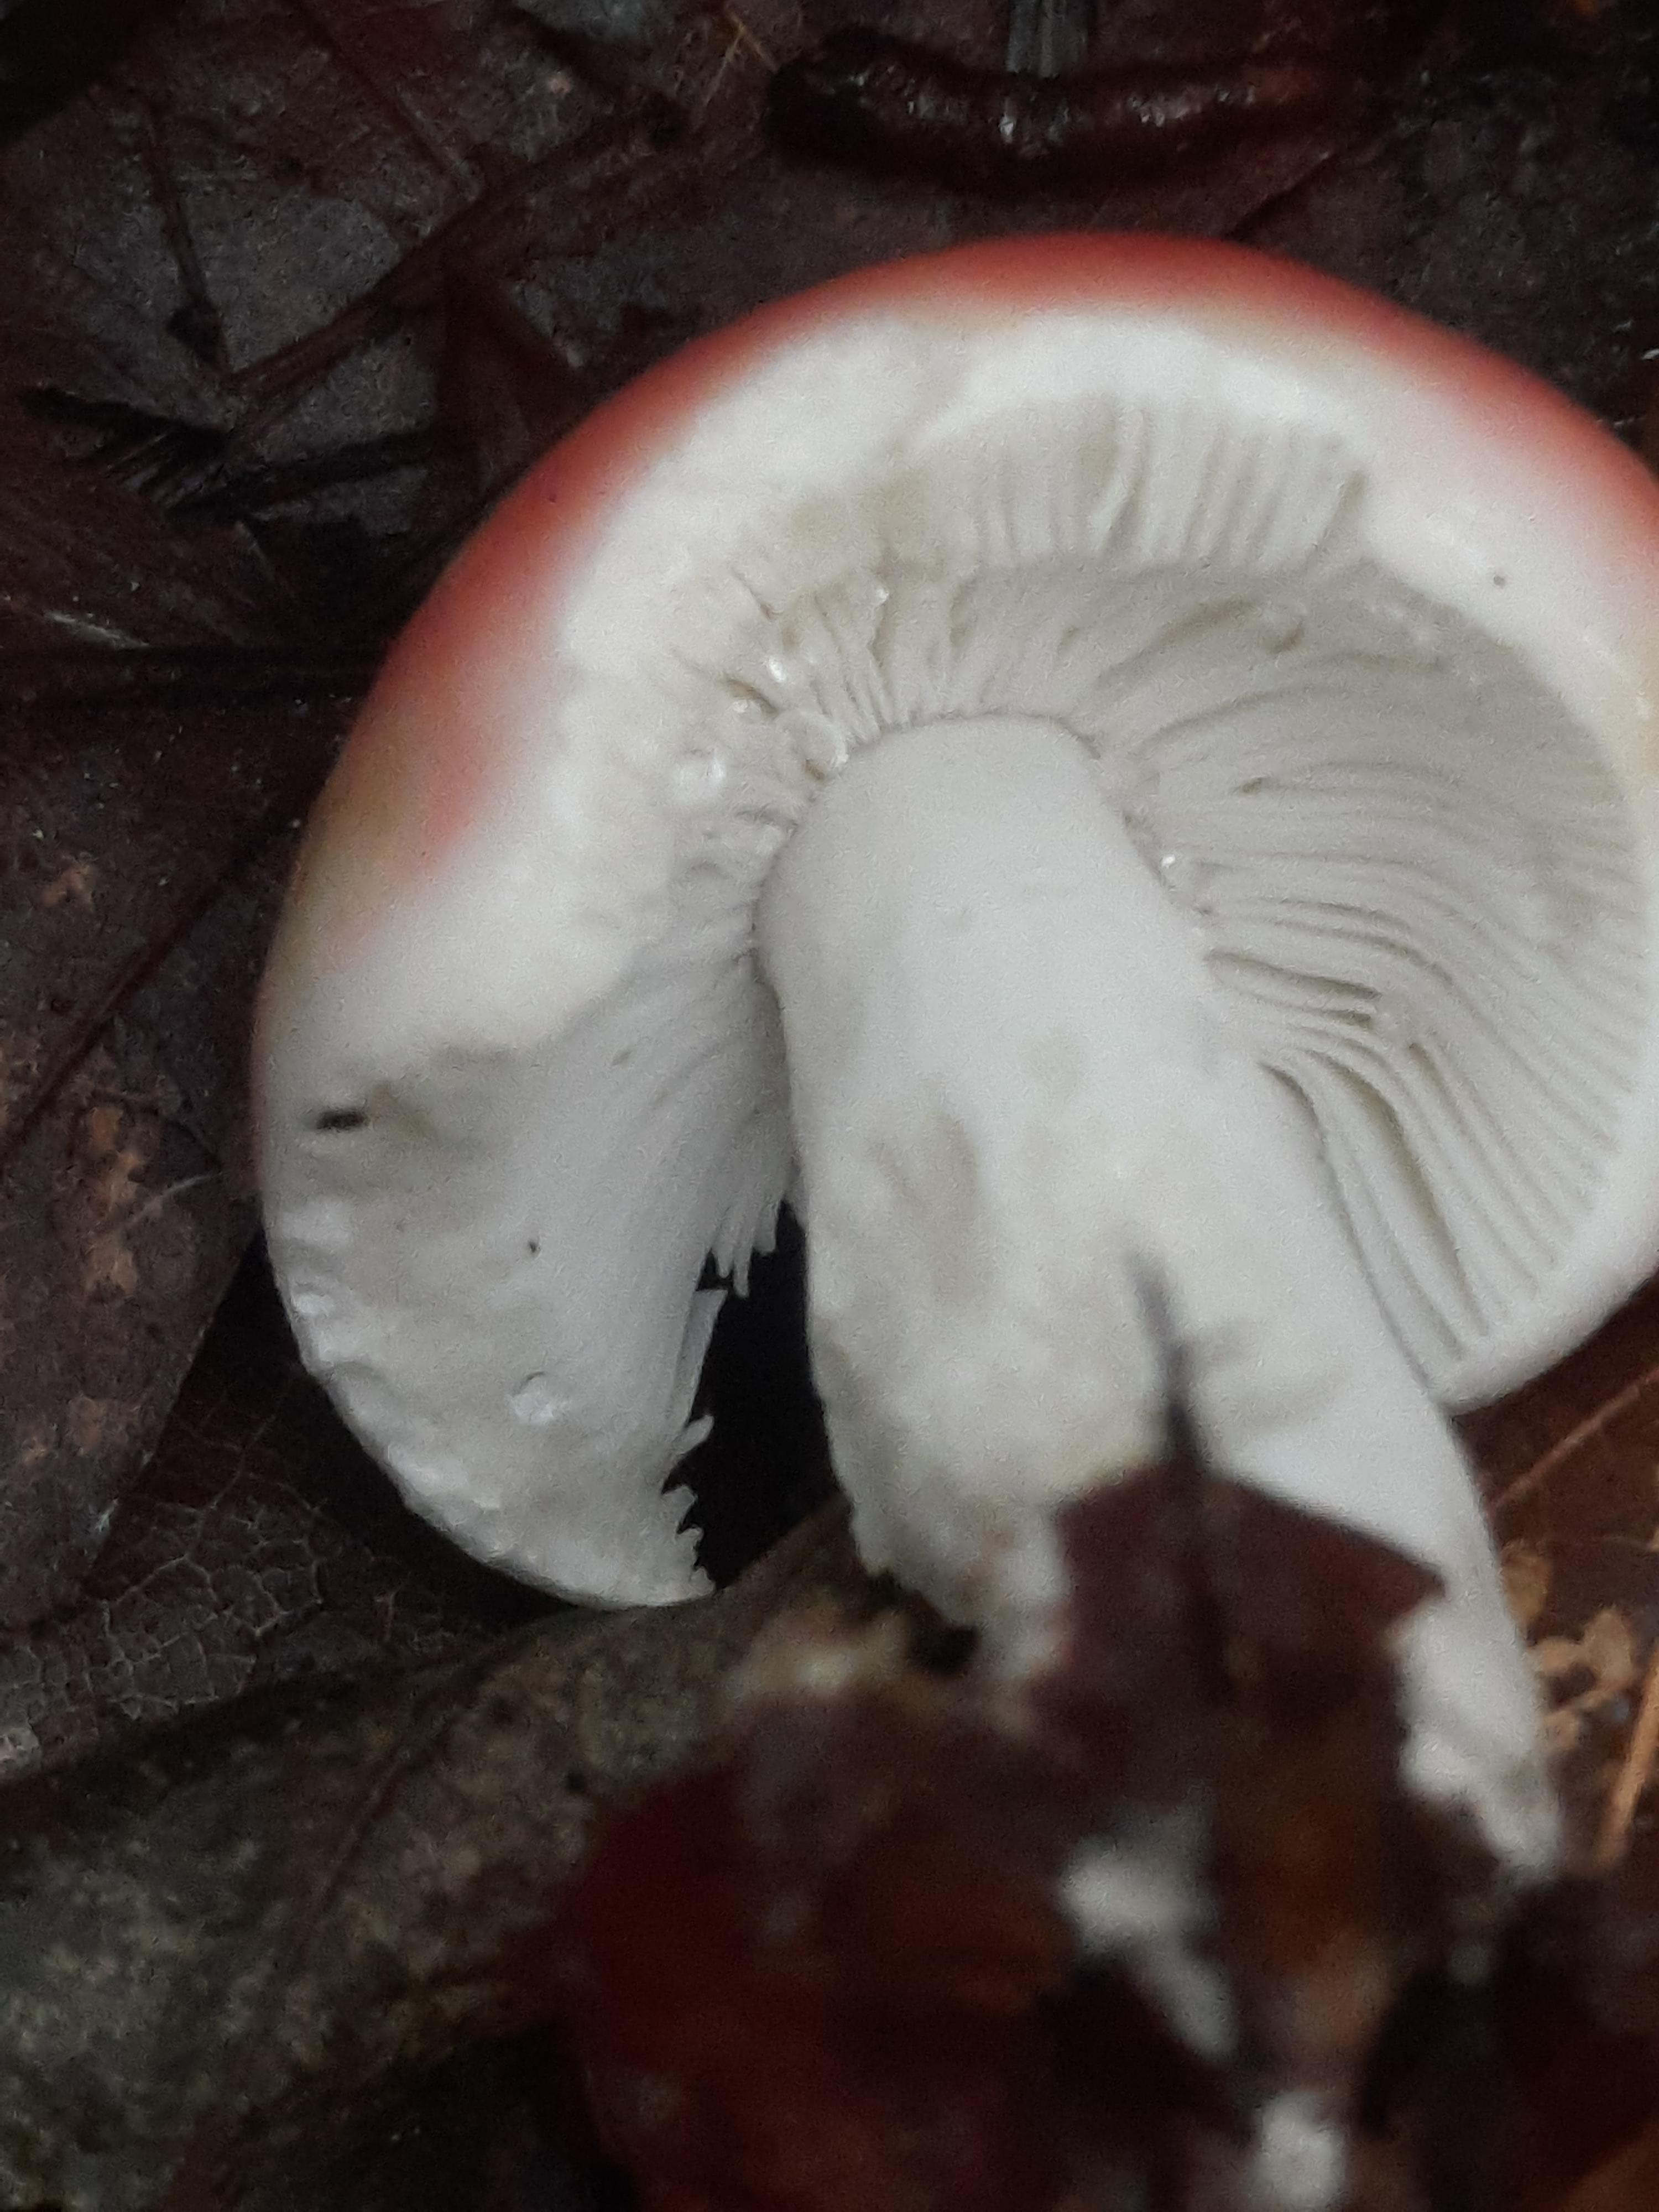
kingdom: Fungi
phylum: Basidiomycota
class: Agaricomycetes
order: Russulales
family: Russulaceae
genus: Russula
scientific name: Russula nobilis
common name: lille gift-skørhat
